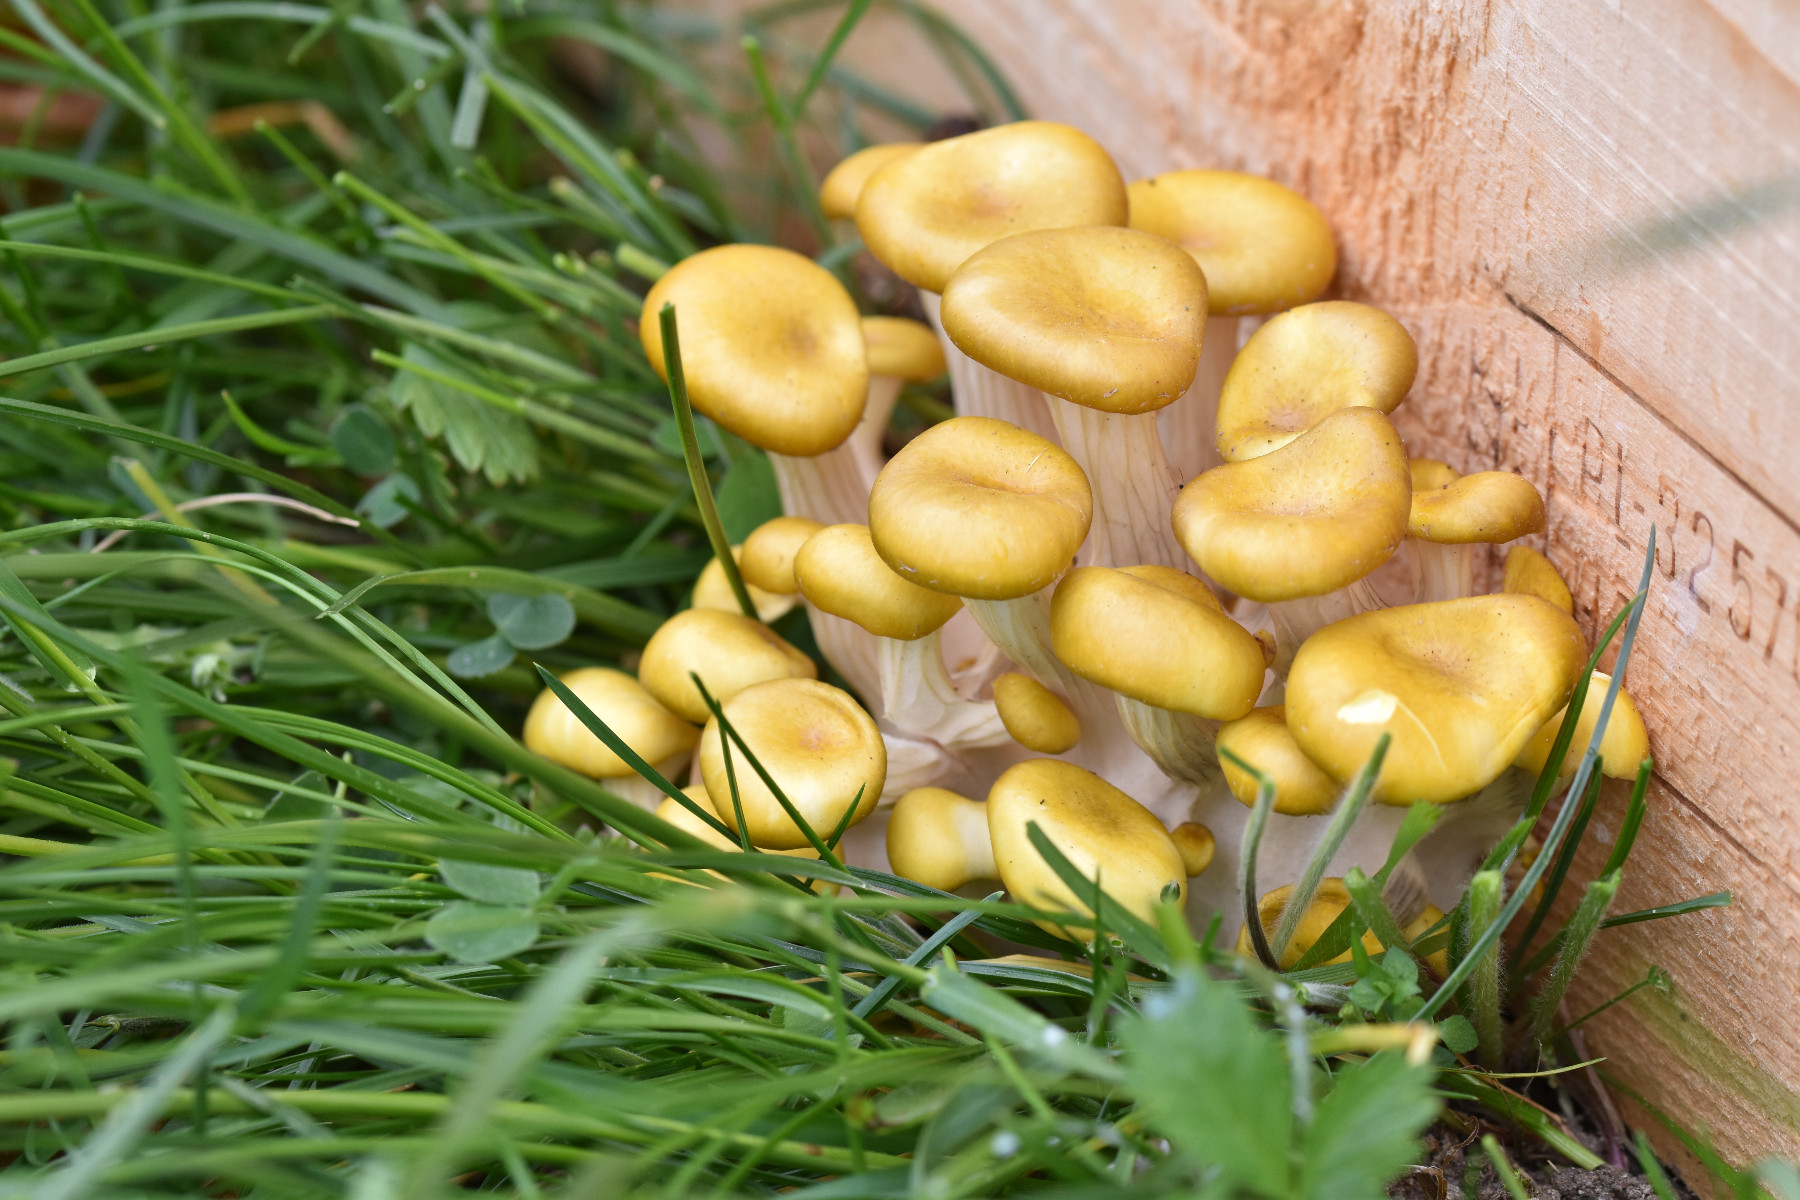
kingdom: Fungi
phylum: Basidiomycota
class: Agaricomycetes
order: Agaricales
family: Pleurotaceae
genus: Pleurotus
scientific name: Pleurotus citrinopileatus
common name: gul østershat
